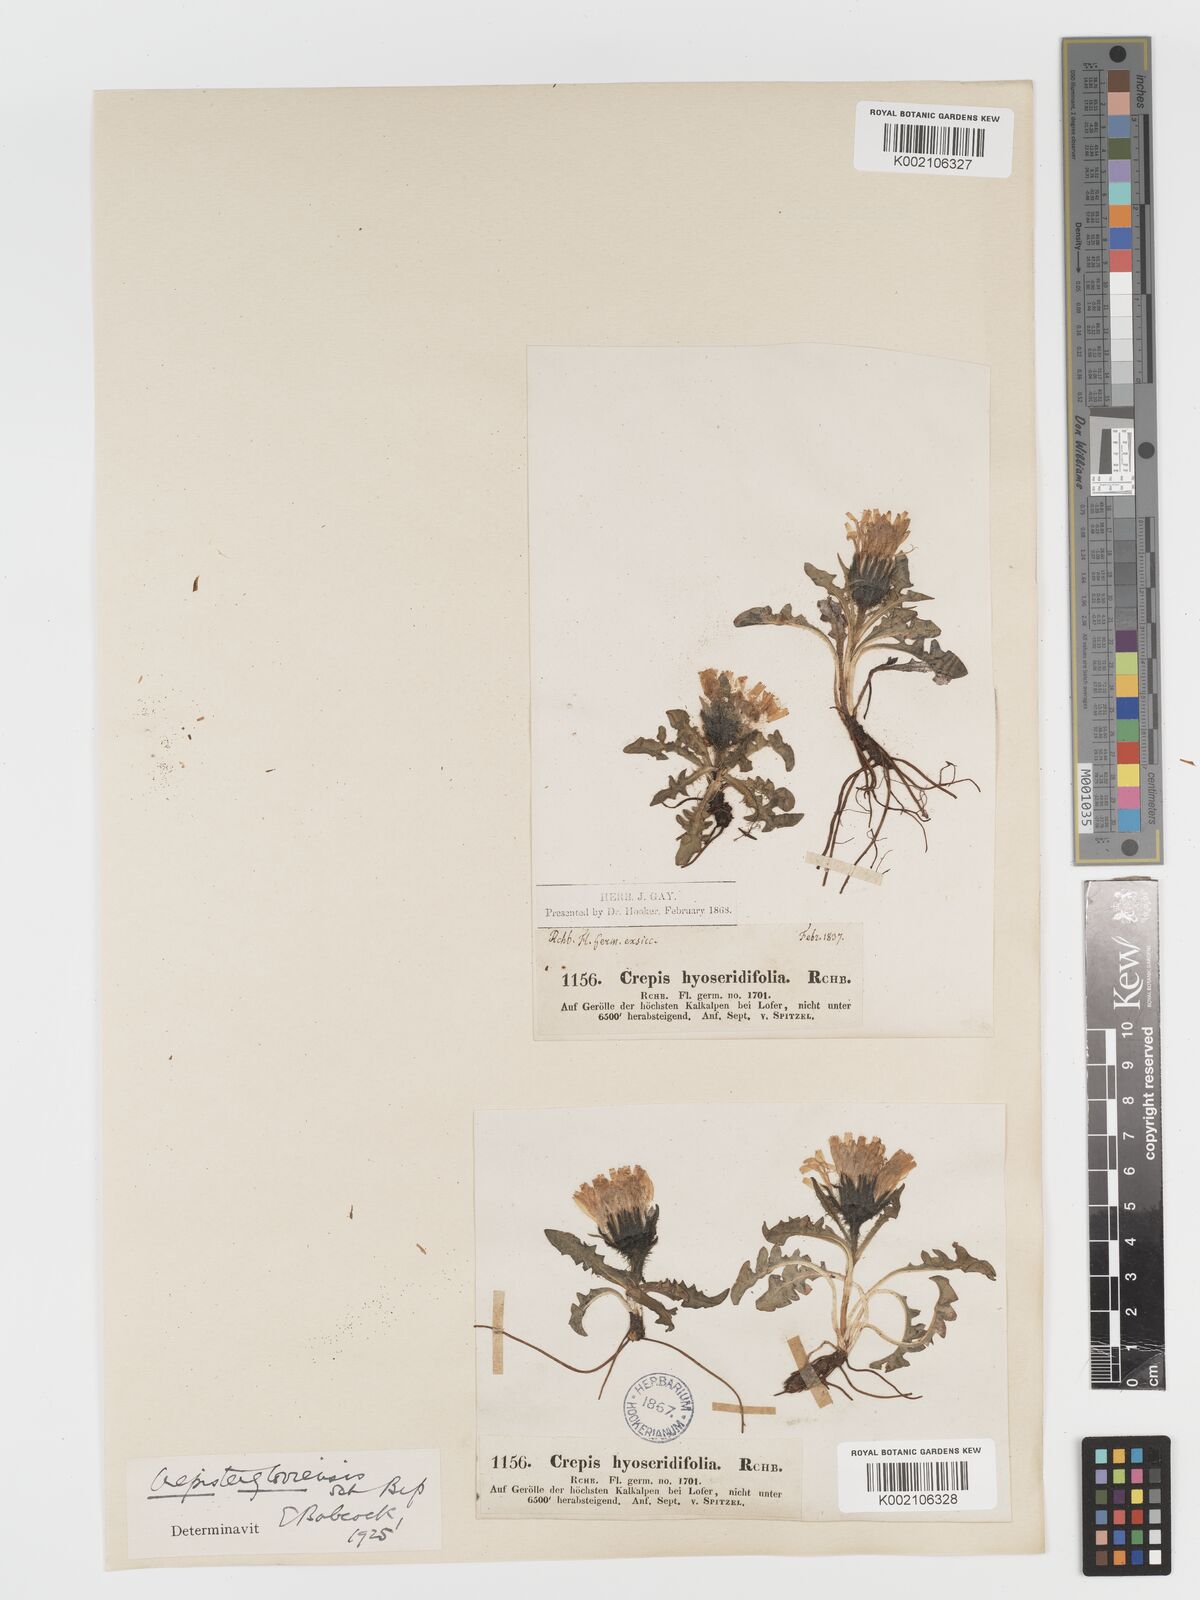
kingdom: Plantae
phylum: Tracheophyta
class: Magnoliopsida
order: Asterales
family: Asteraceae
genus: Crepis
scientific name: Crepis
